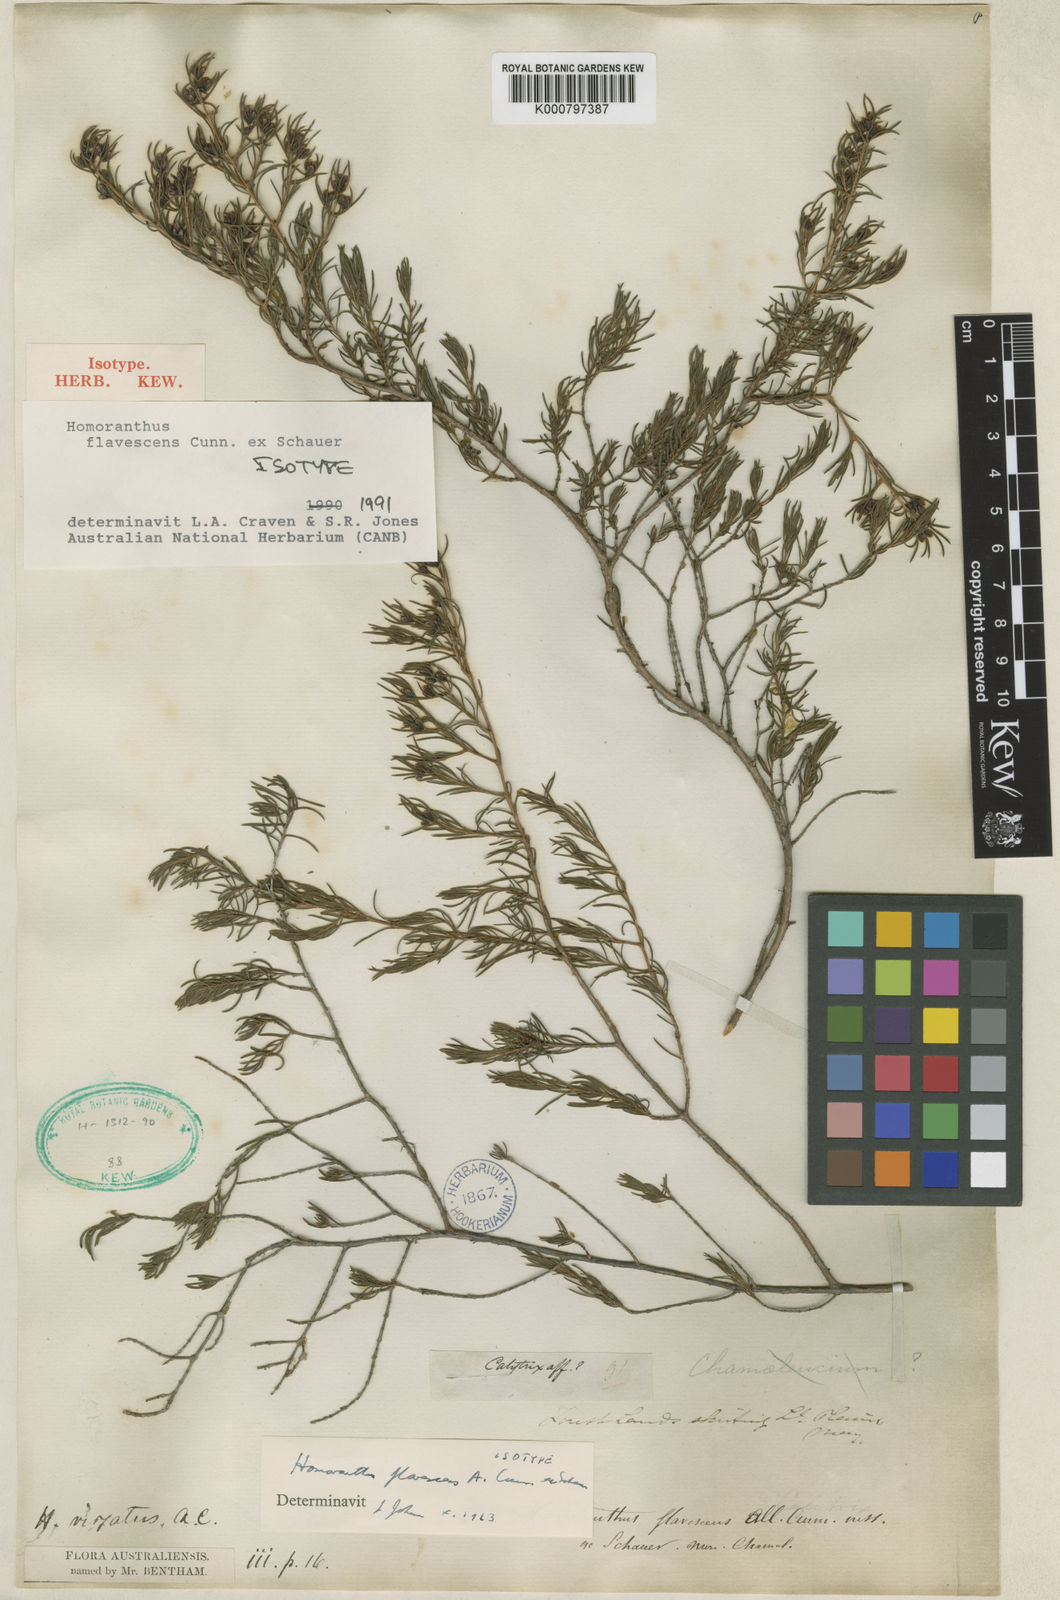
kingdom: Plantae
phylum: Tracheophyta
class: Magnoliopsida
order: Myrtales
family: Myrtaceae
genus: Homoranthus
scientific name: Homoranthus flavescens
